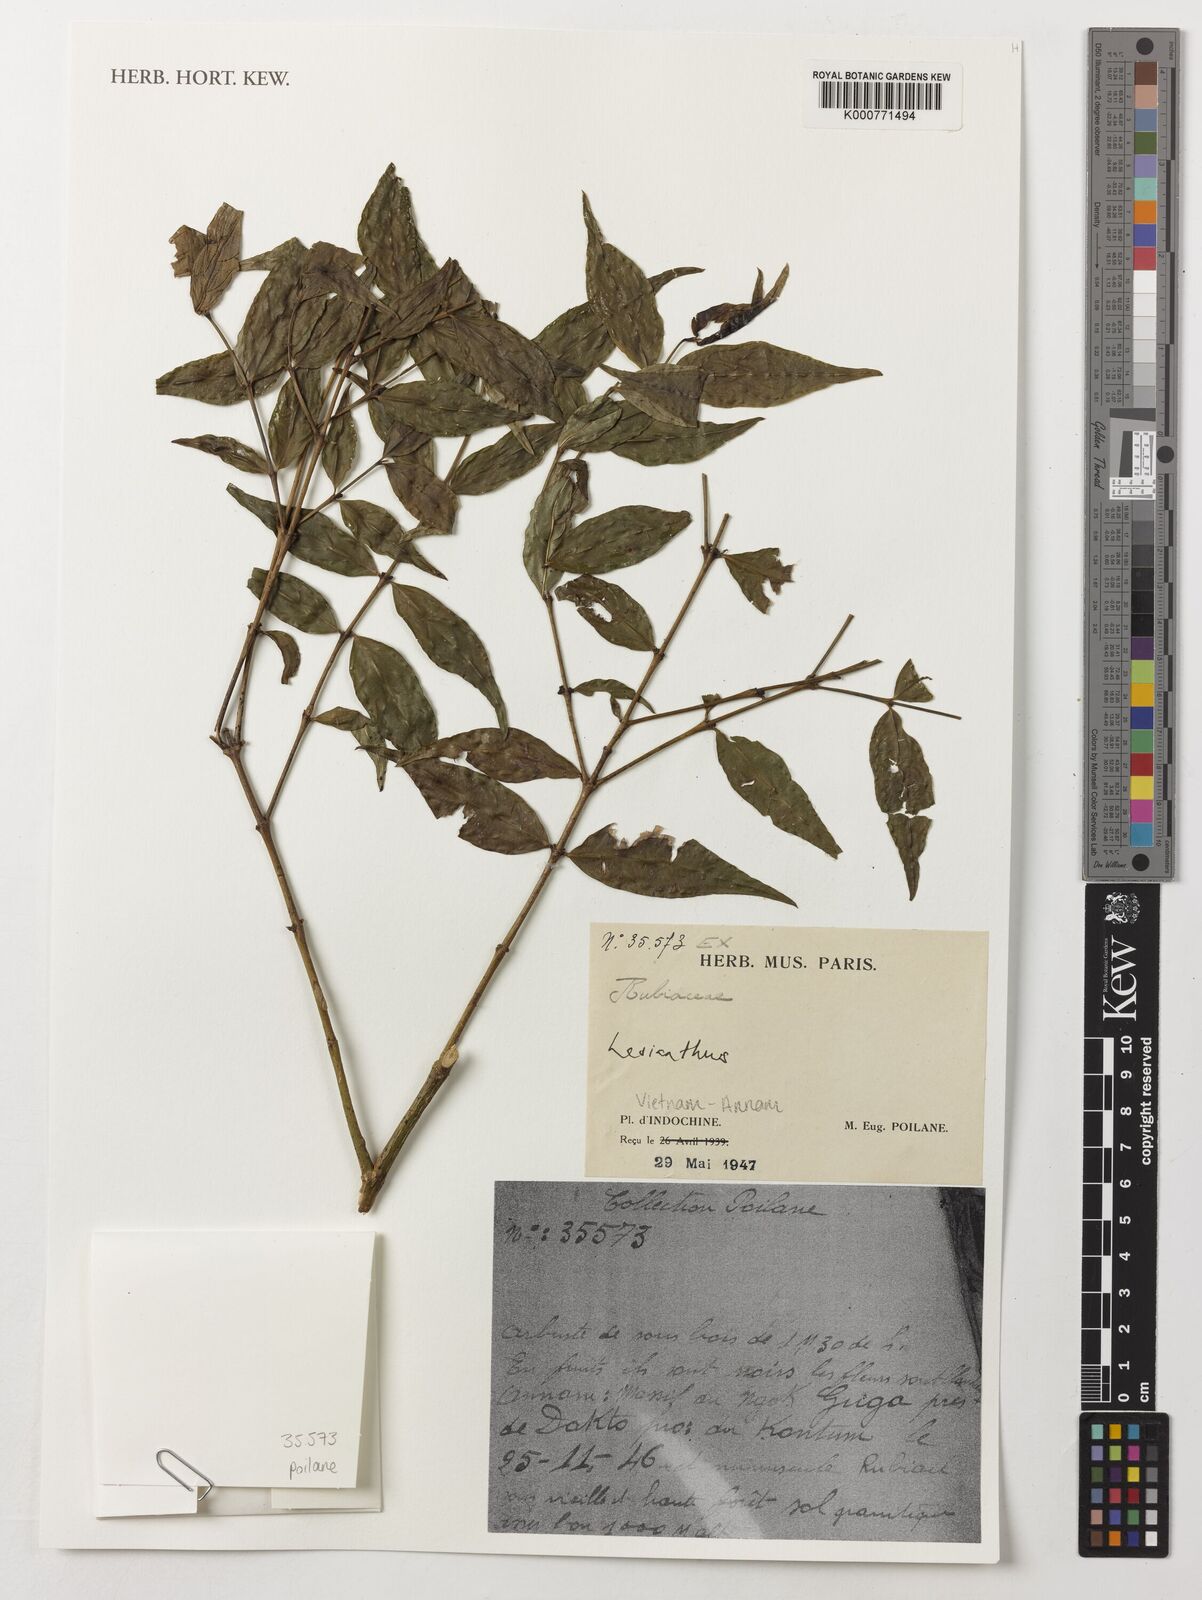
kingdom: Plantae
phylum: Tracheophyta
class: Magnoliopsida
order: Gentianales
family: Rubiaceae
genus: Lasianthus
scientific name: Lasianthus
